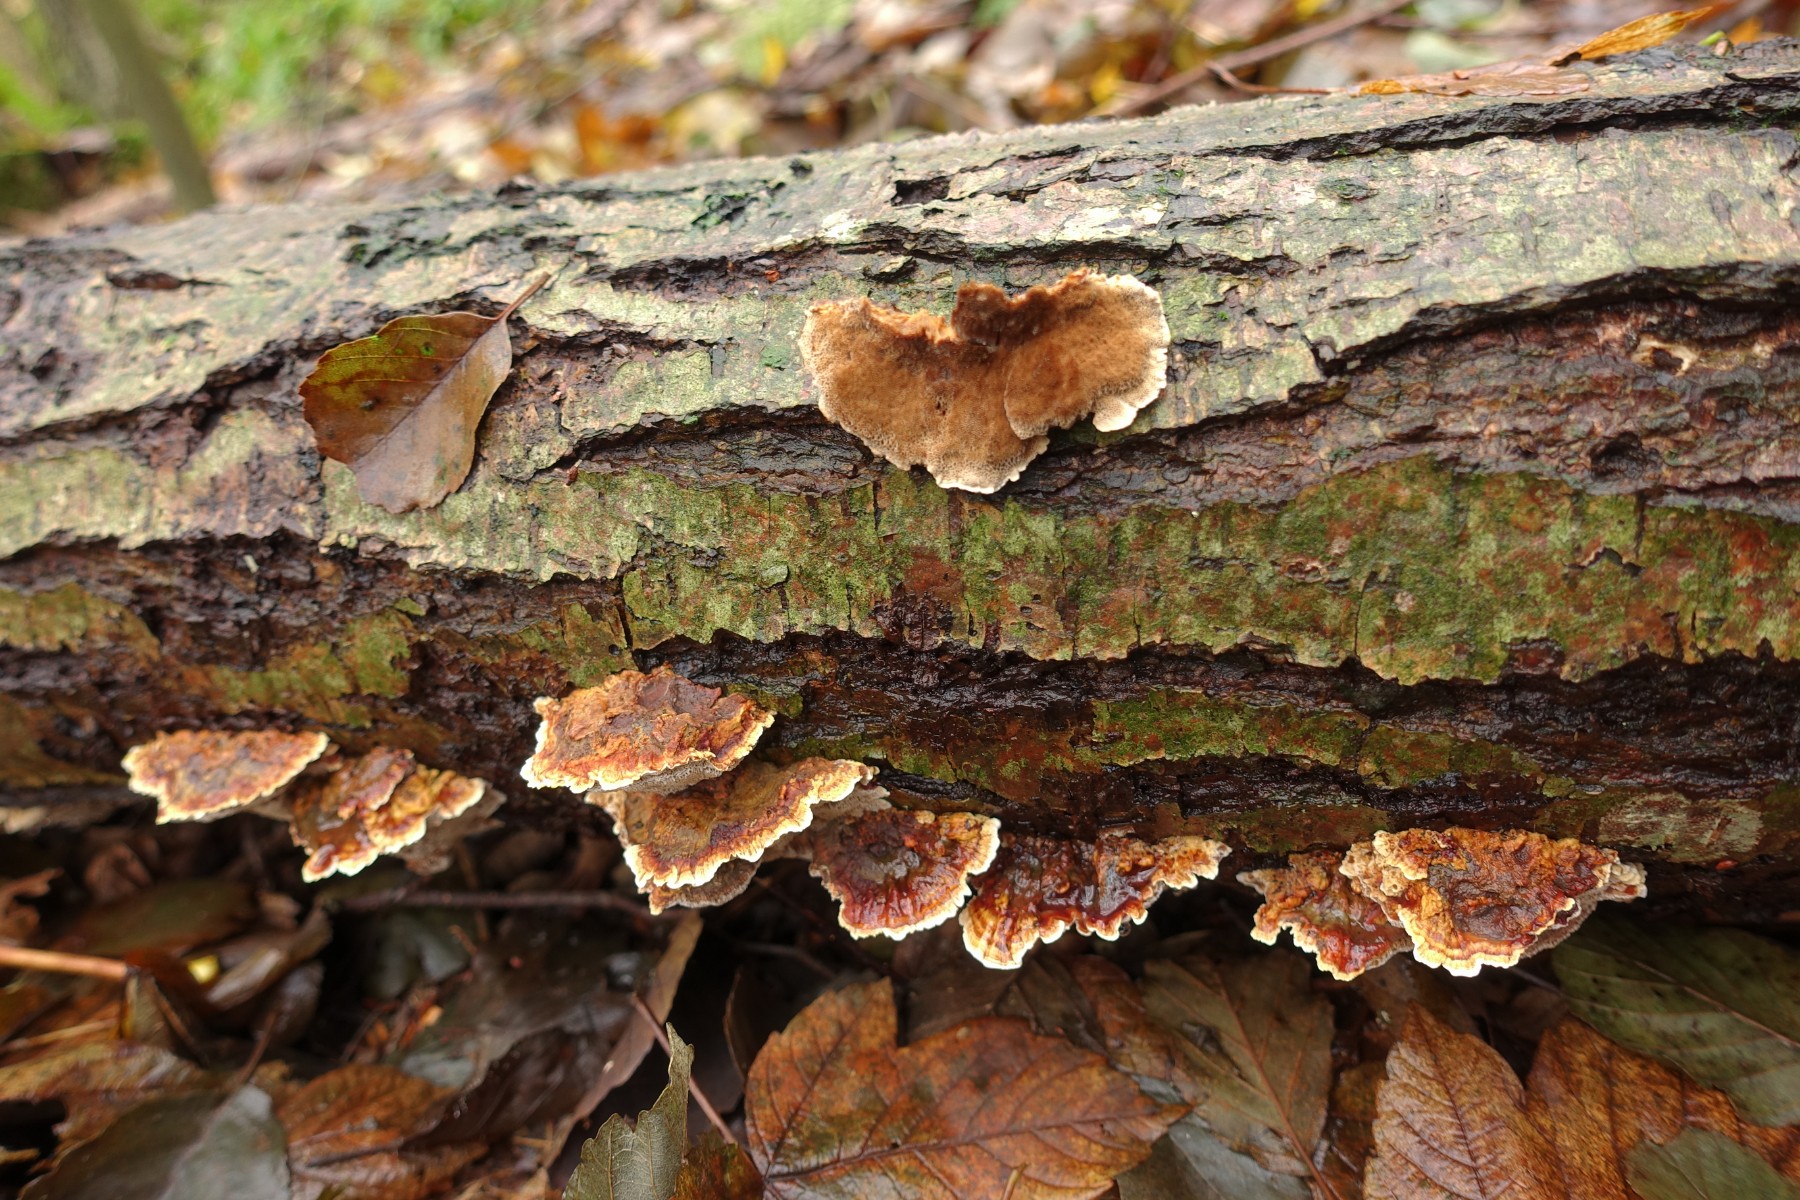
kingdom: Fungi
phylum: Basidiomycota
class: Agaricomycetes
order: Hymenochaetales
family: Hymenochaetaceae
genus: Xanthoporia
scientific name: Xanthoporia radiata
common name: elle-spejlporesvamp
